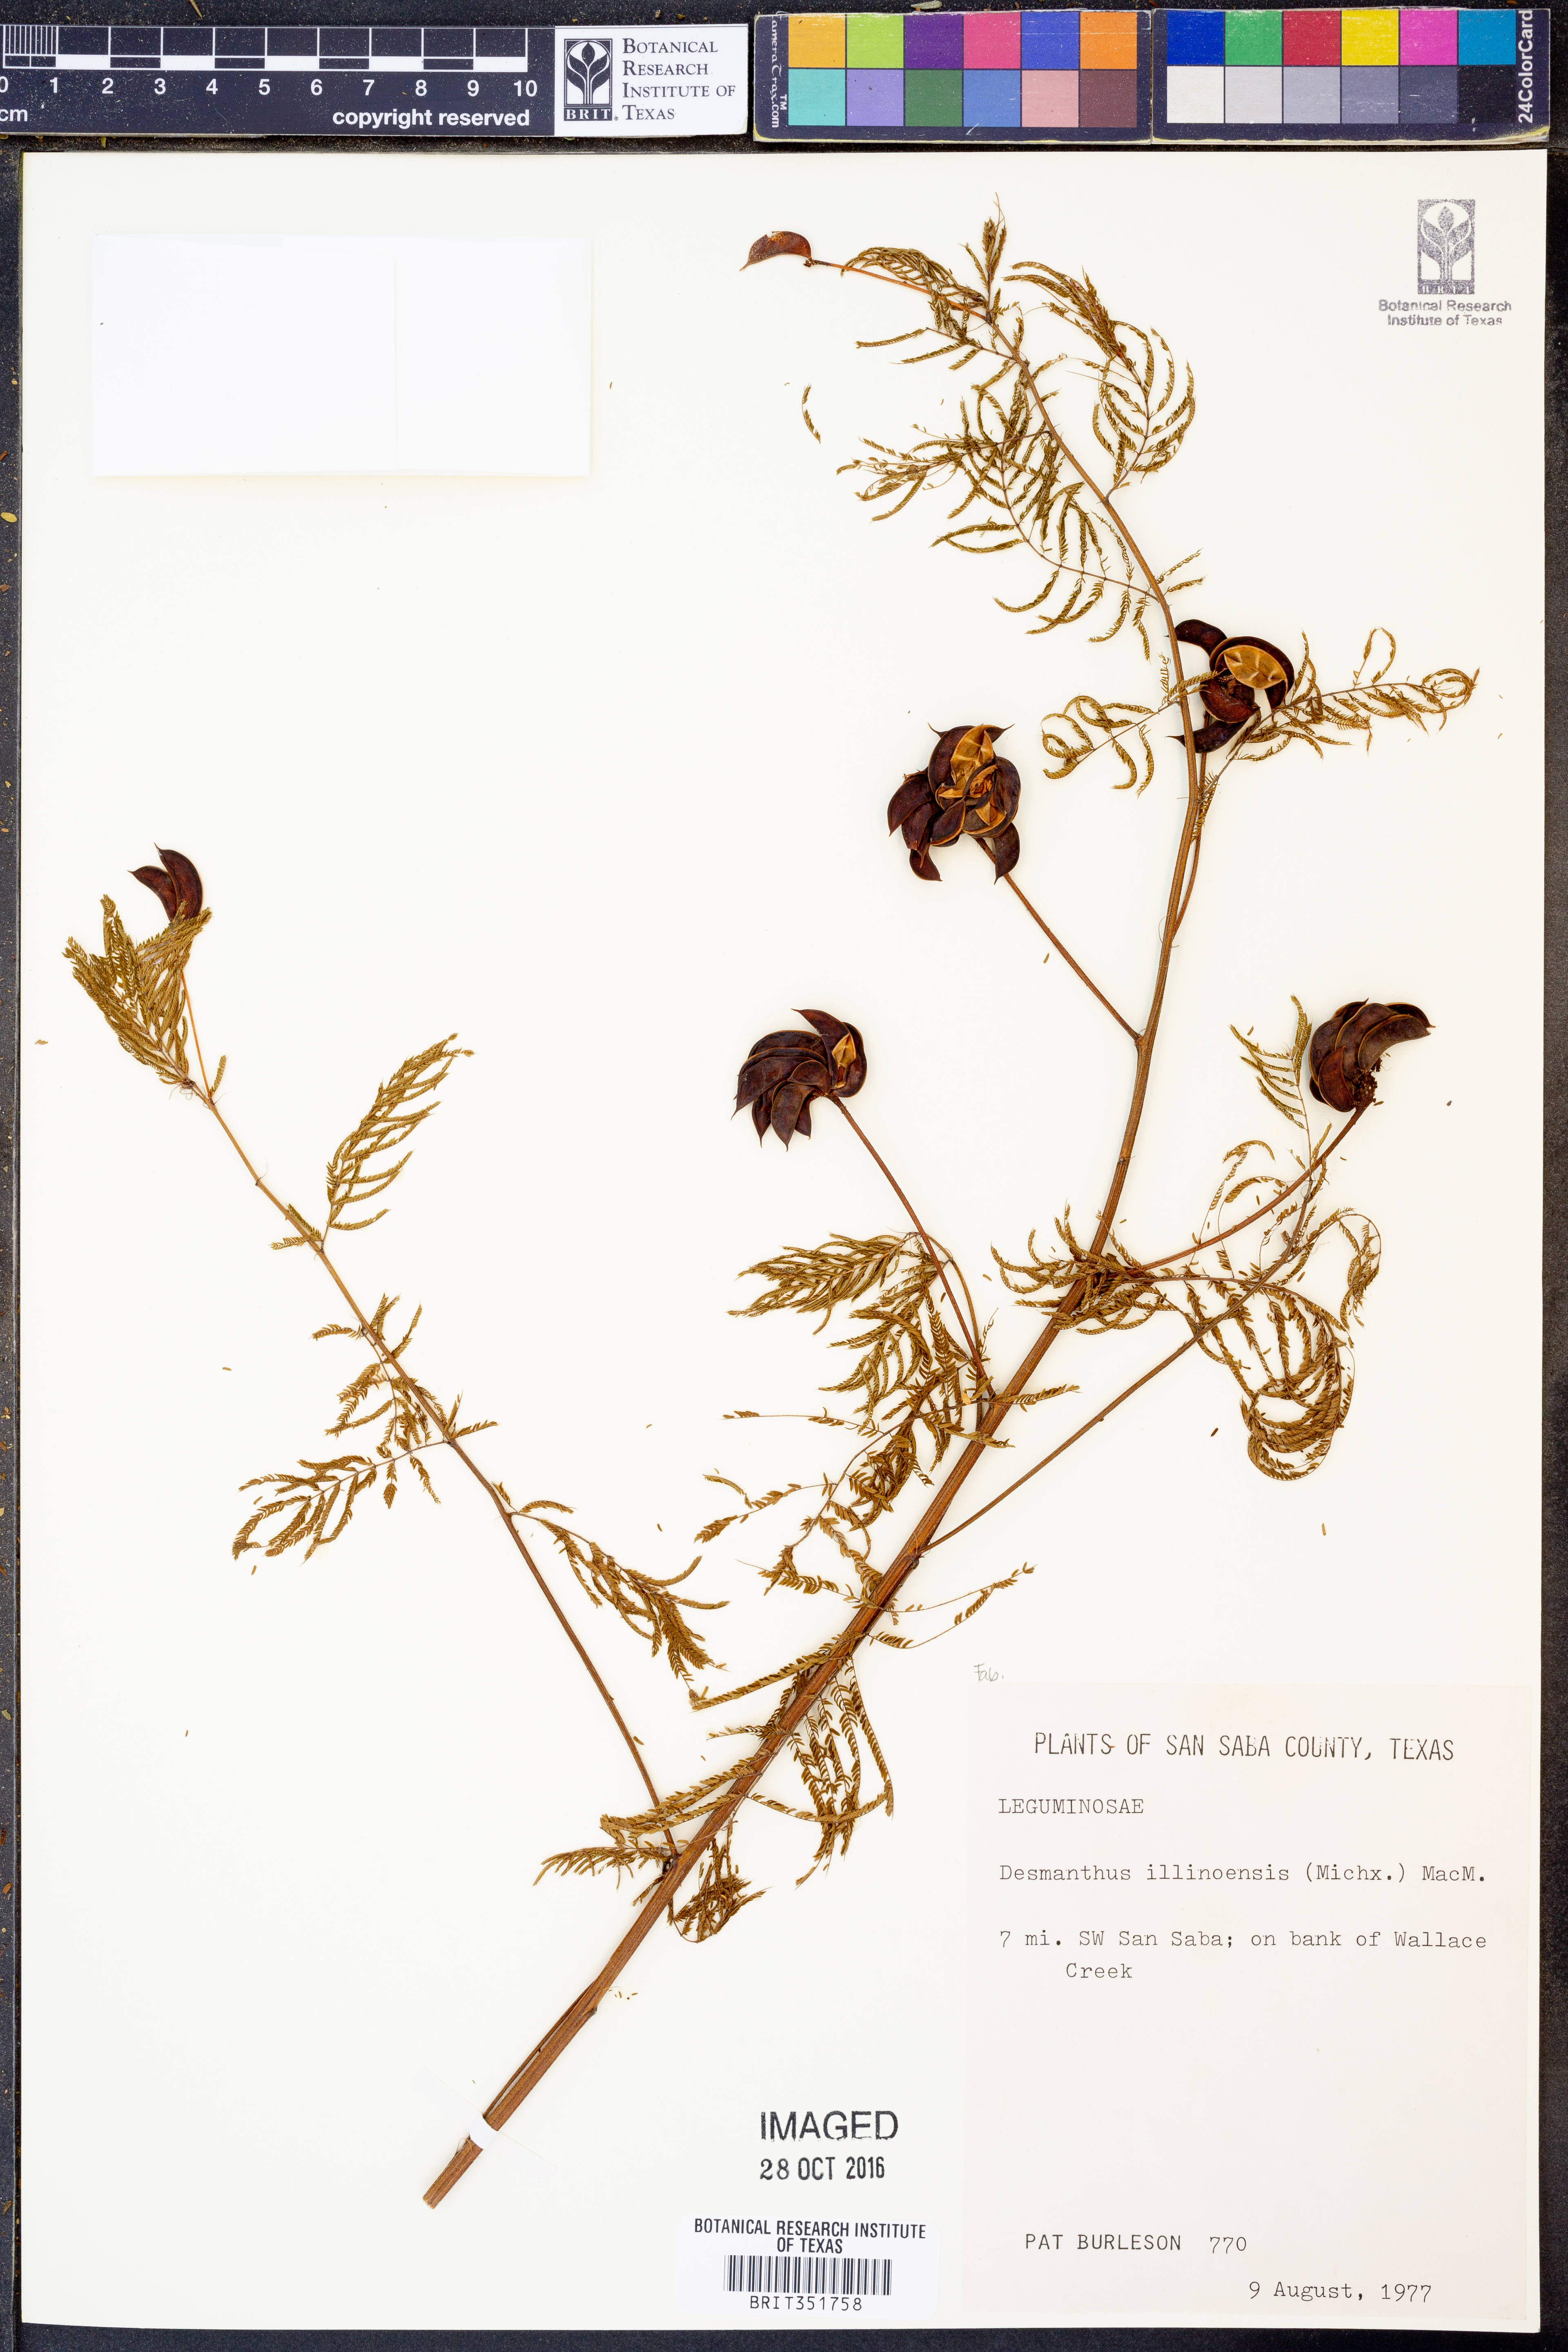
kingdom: Plantae
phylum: Tracheophyta
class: Magnoliopsida
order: Fabales
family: Fabaceae
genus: Desmanthus
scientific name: Desmanthus illinoensis
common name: Illinois bundle-flower
